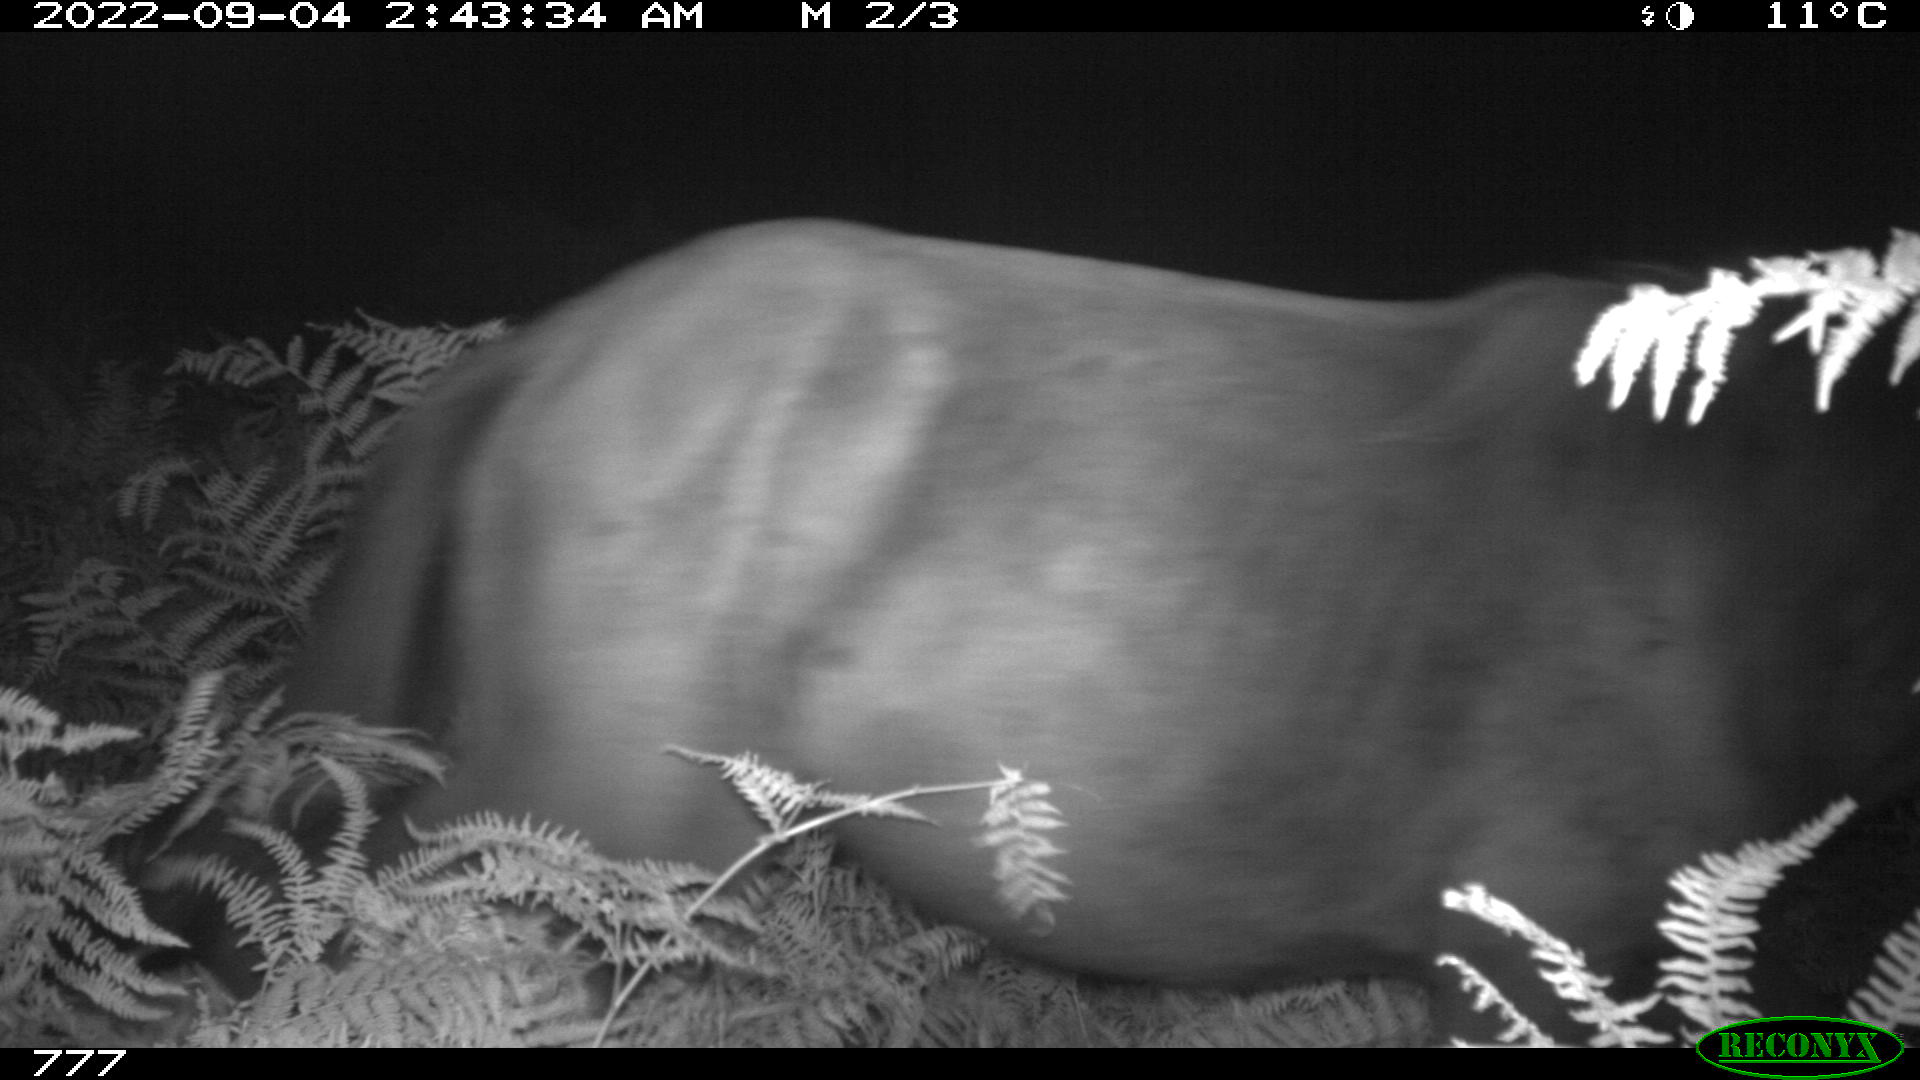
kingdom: Animalia
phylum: Chordata
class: Mammalia
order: Perissodactyla
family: Equidae
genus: Equus
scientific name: Equus caballus
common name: Horse
